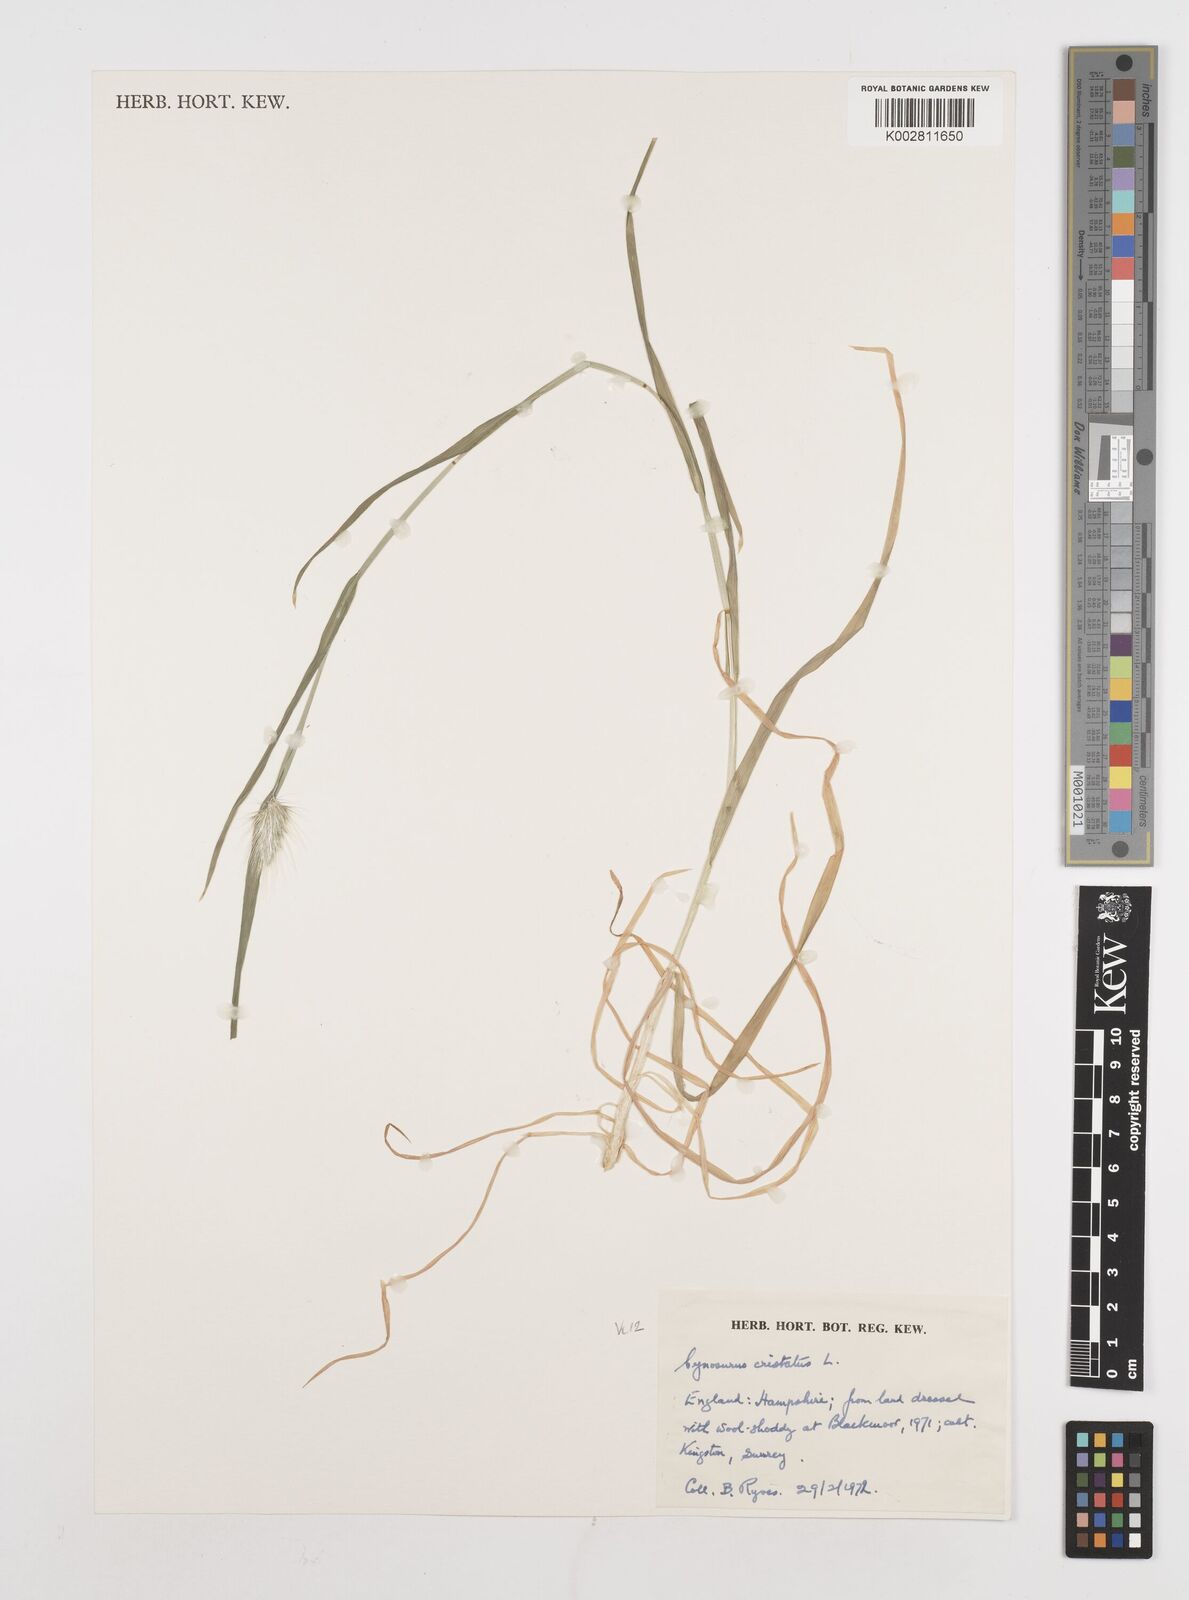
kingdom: Plantae
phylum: Tracheophyta
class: Liliopsida
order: Poales
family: Poaceae
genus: Cynosurus
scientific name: Cynosurus echinatus
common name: Rough dog's-tail
